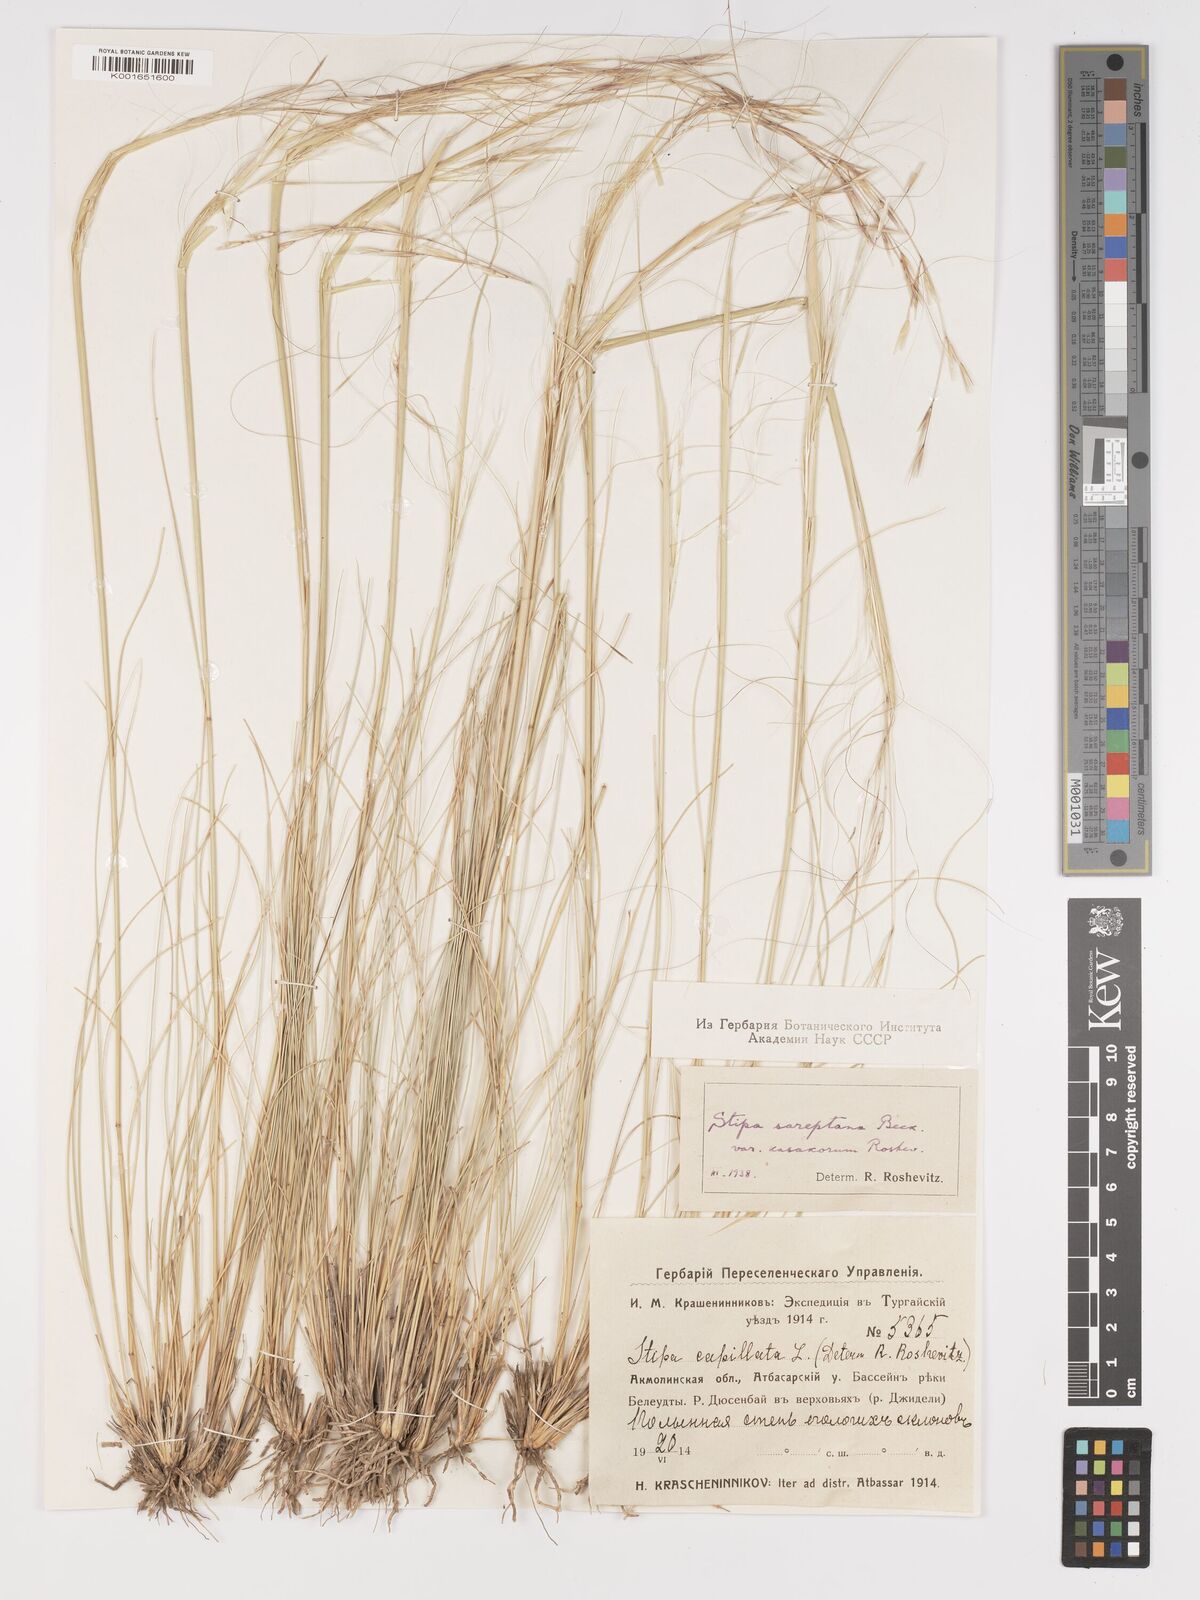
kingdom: Plantae
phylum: Tracheophyta
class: Liliopsida
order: Poales
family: Poaceae
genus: Stipa
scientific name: Stipa sareptana
